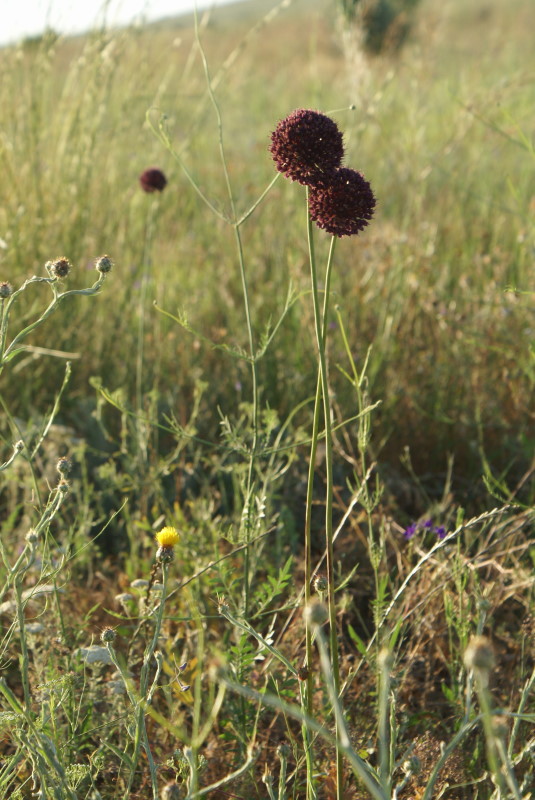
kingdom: Plantae
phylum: Tracheophyta
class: Liliopsida
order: Asparagales
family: Amaryllidaceae
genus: Allium
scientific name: Allium rotundum
